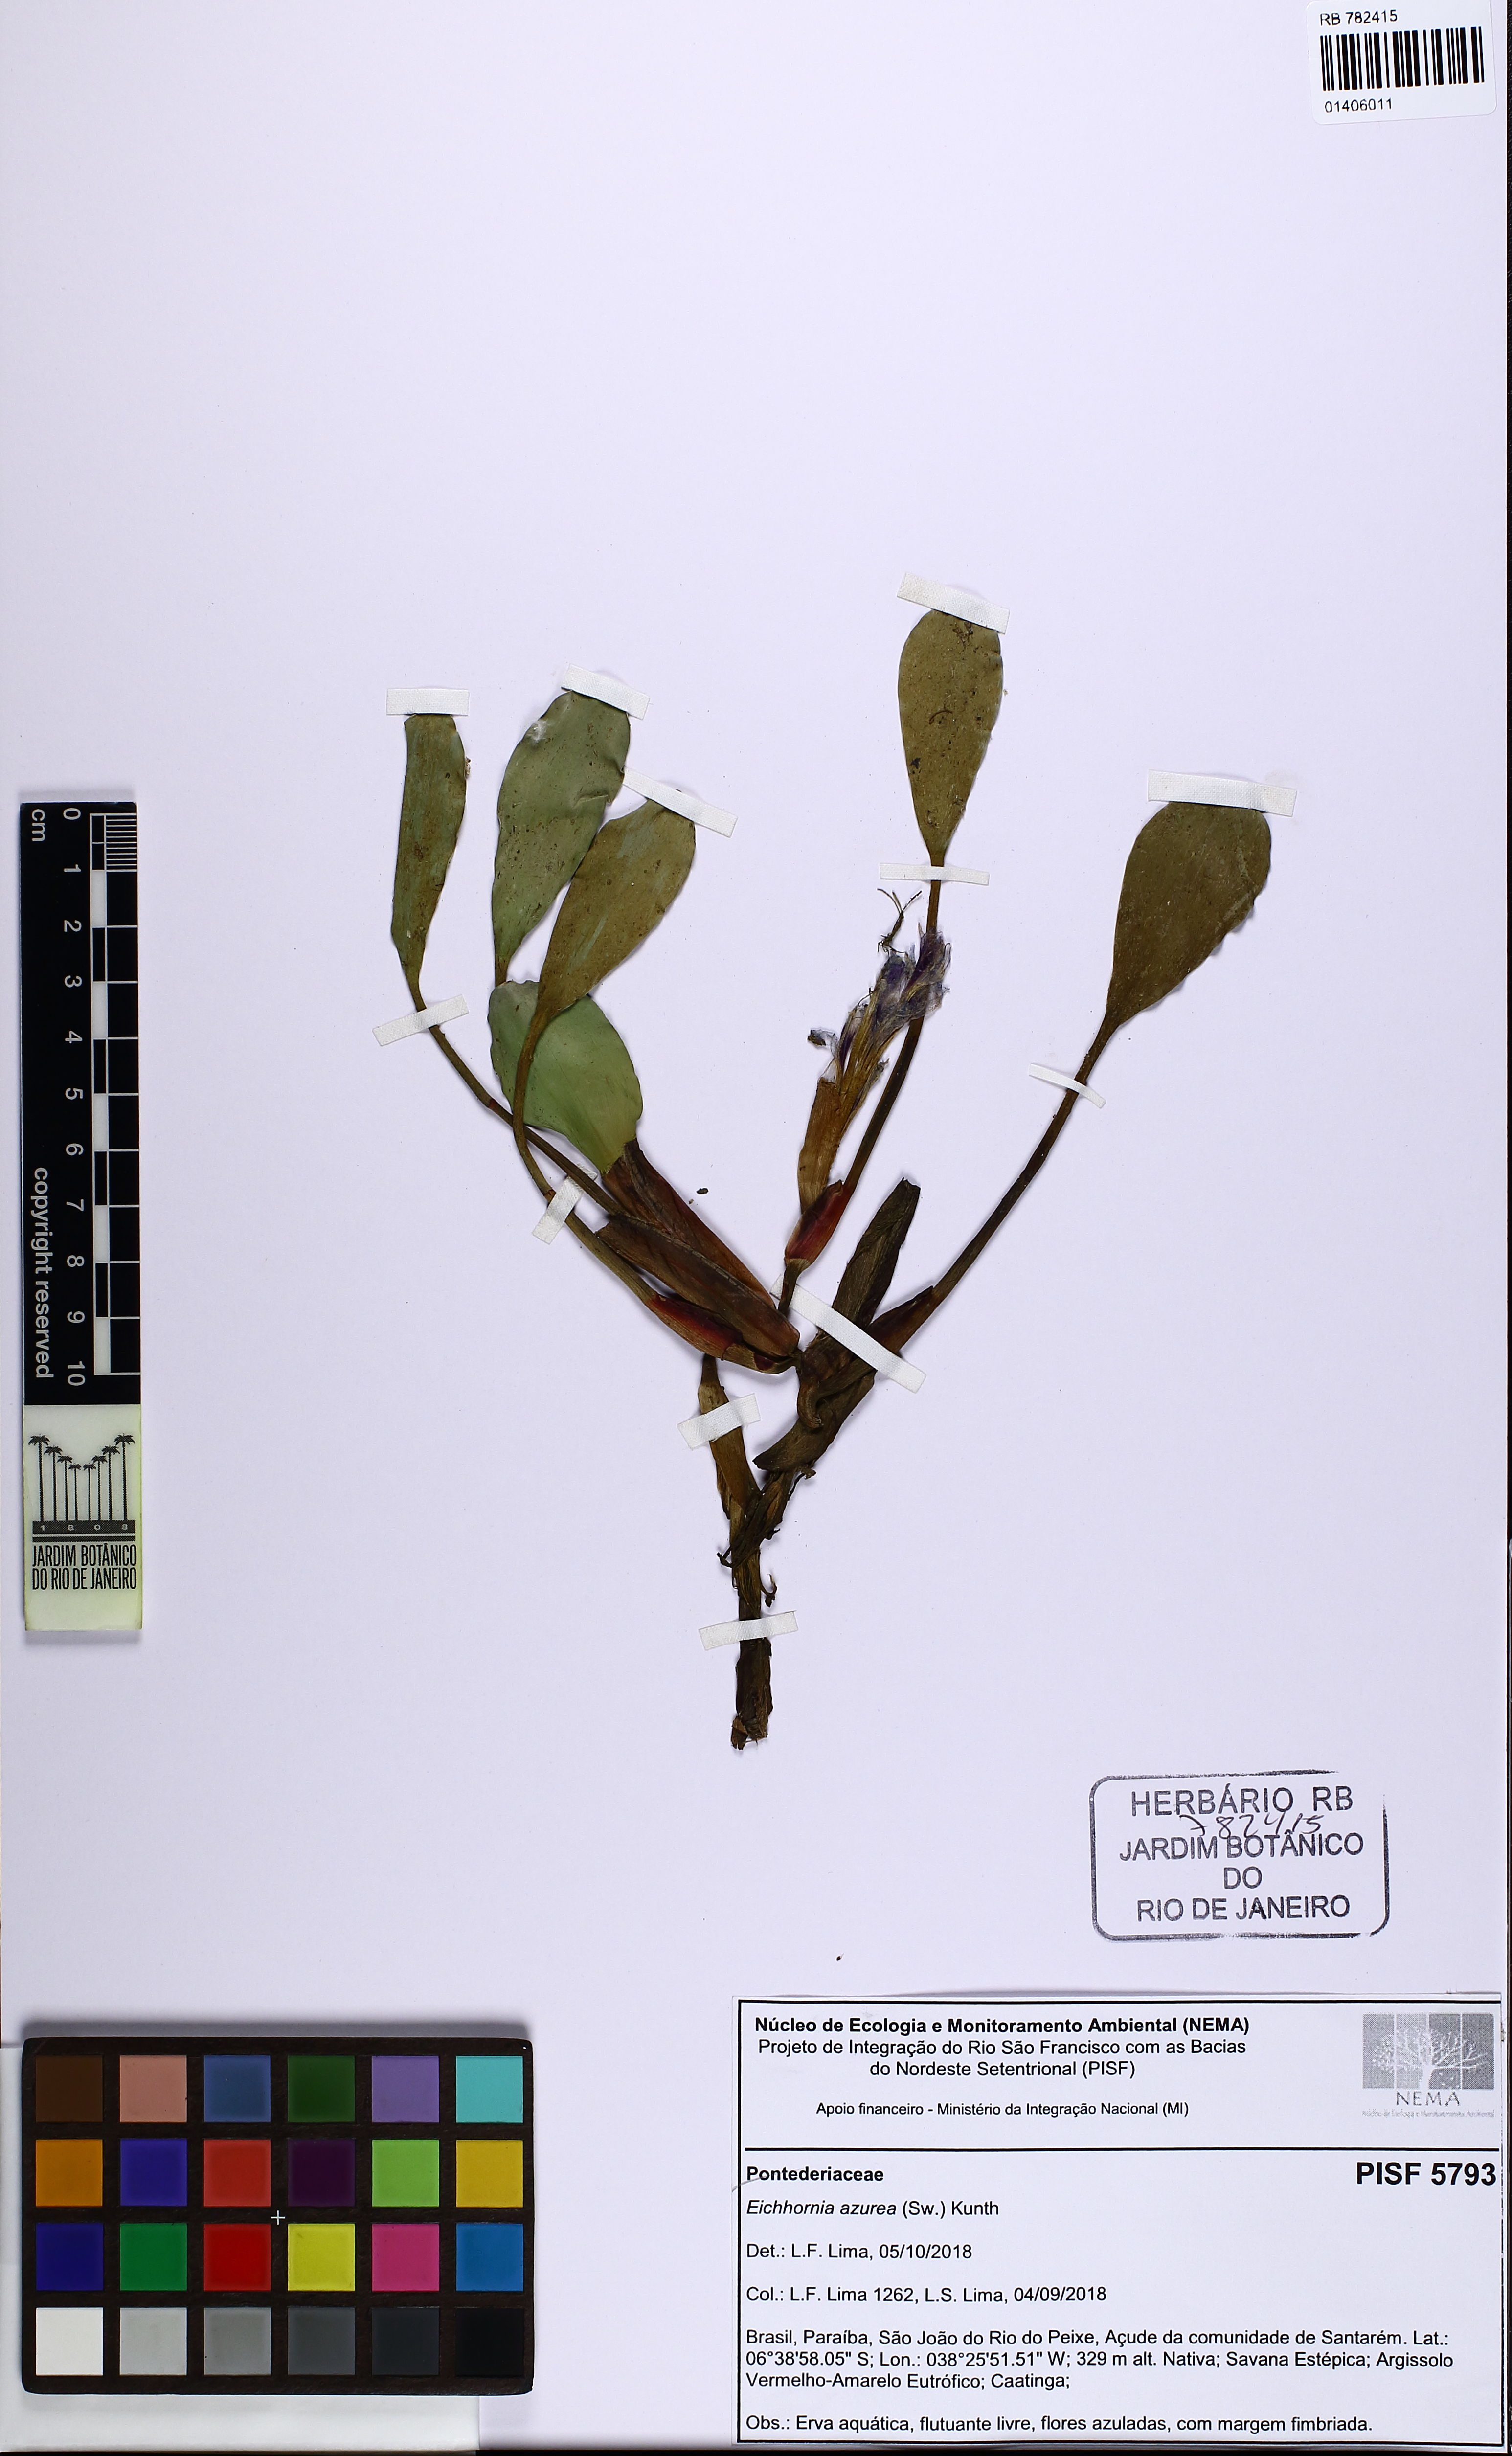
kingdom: Plantae
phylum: Tracheophyta
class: Liliopsida
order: Commelinales
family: Pontederiaceae
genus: Pontederia
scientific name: Pontederia azurea
